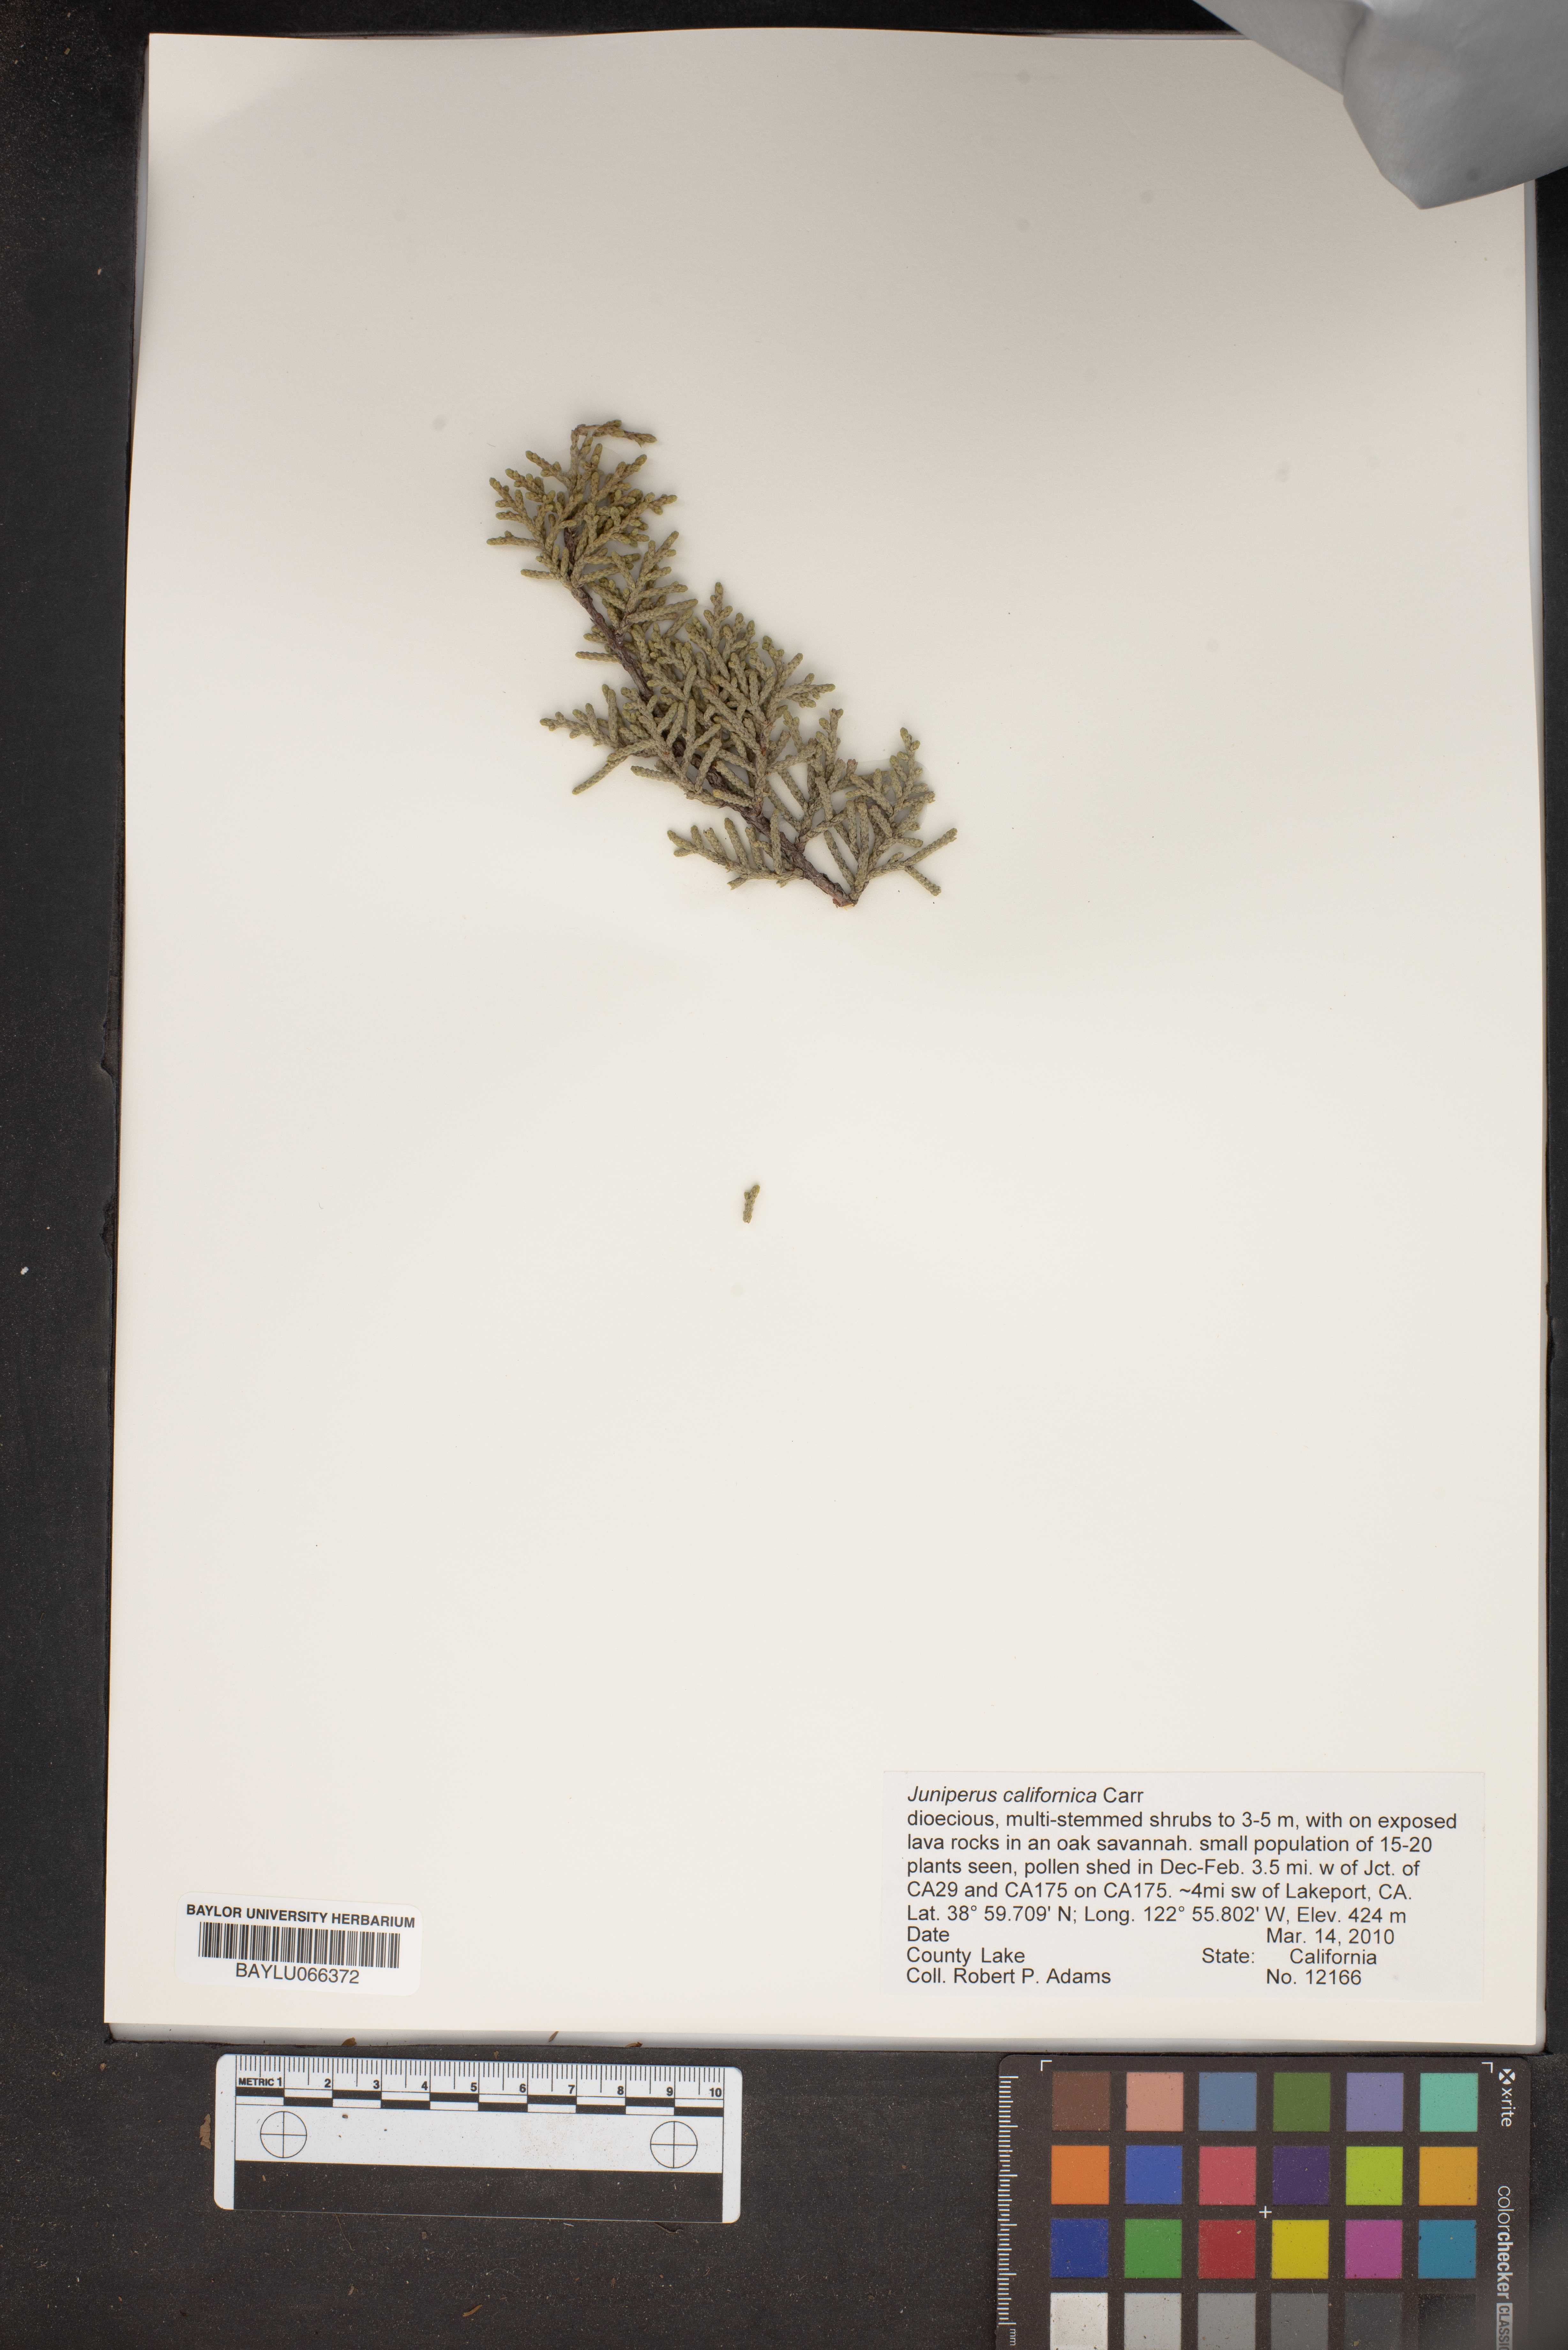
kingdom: Plantae
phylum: Tracheophyta
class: Pinopsida
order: Pinales
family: Cupressaceae
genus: Juniperus
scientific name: Juniperus californica
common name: California juniper
